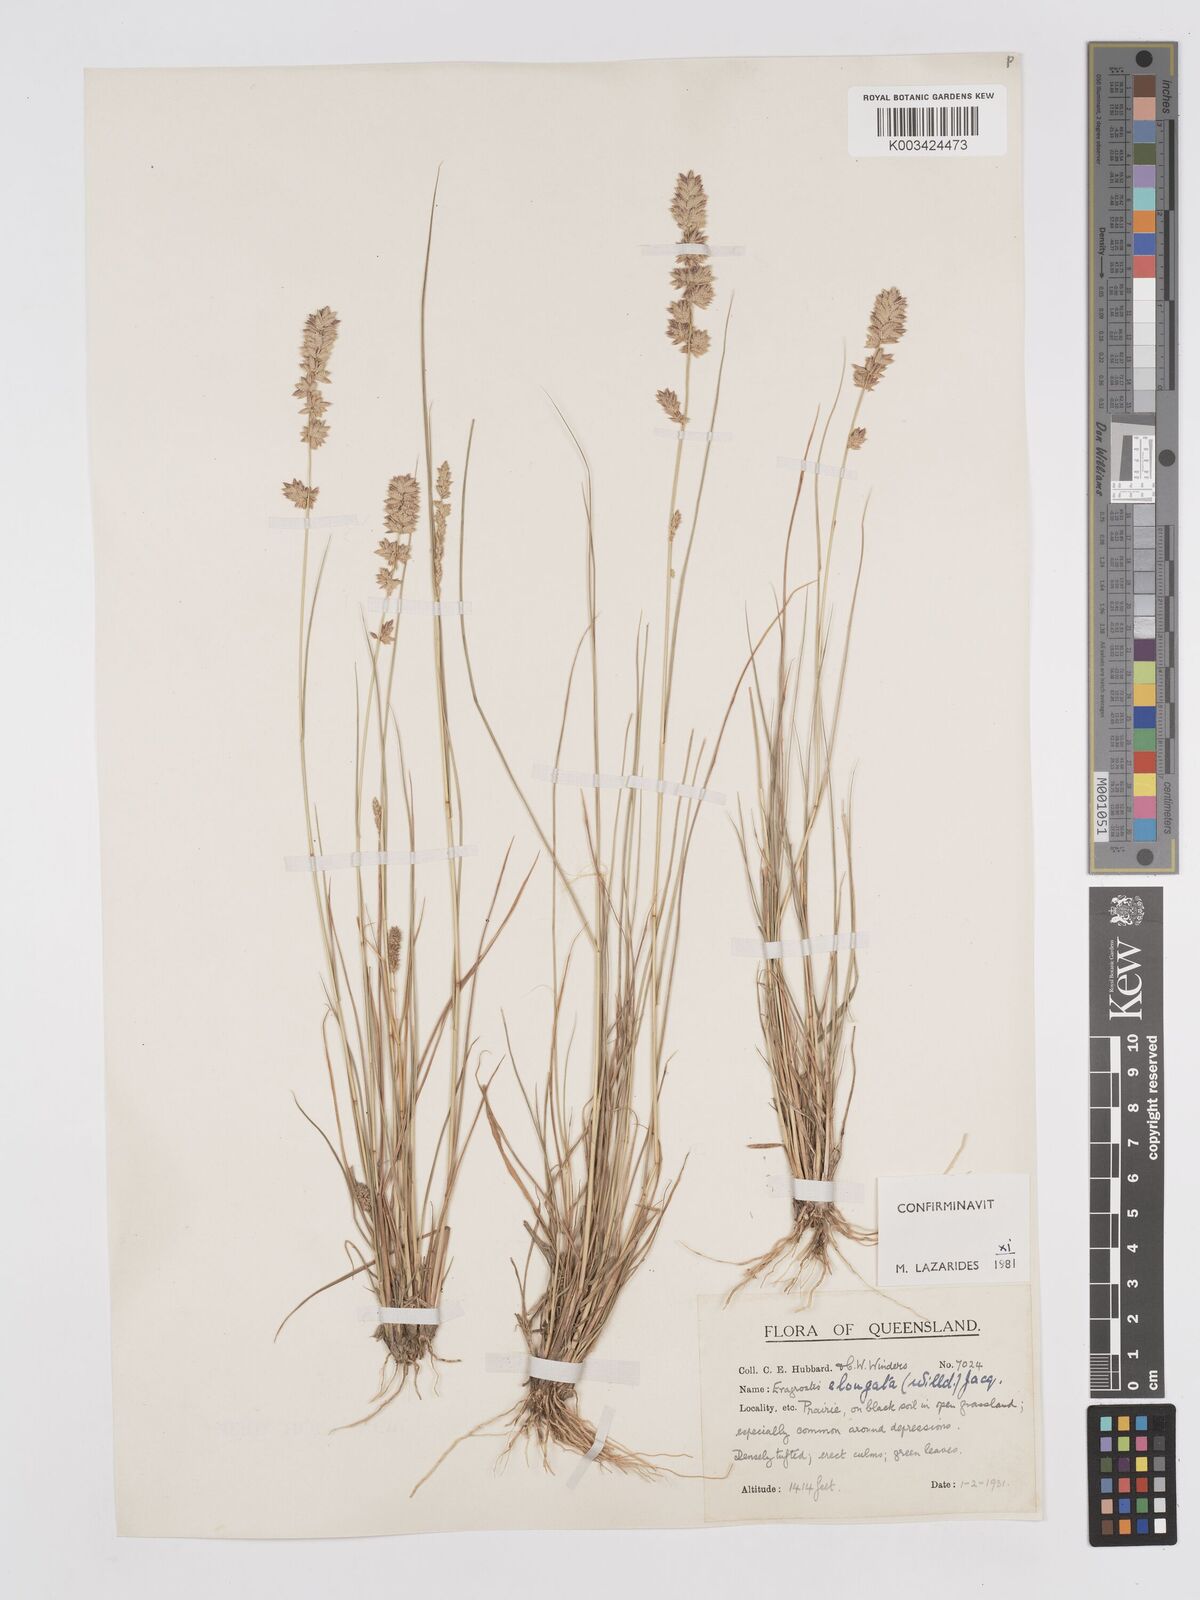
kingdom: Plantae
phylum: Tracheophyta
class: Liliopsida
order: Poales
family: Poaceae
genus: Eragrostis
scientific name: Eragrostis elongata
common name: Long lovegrass
